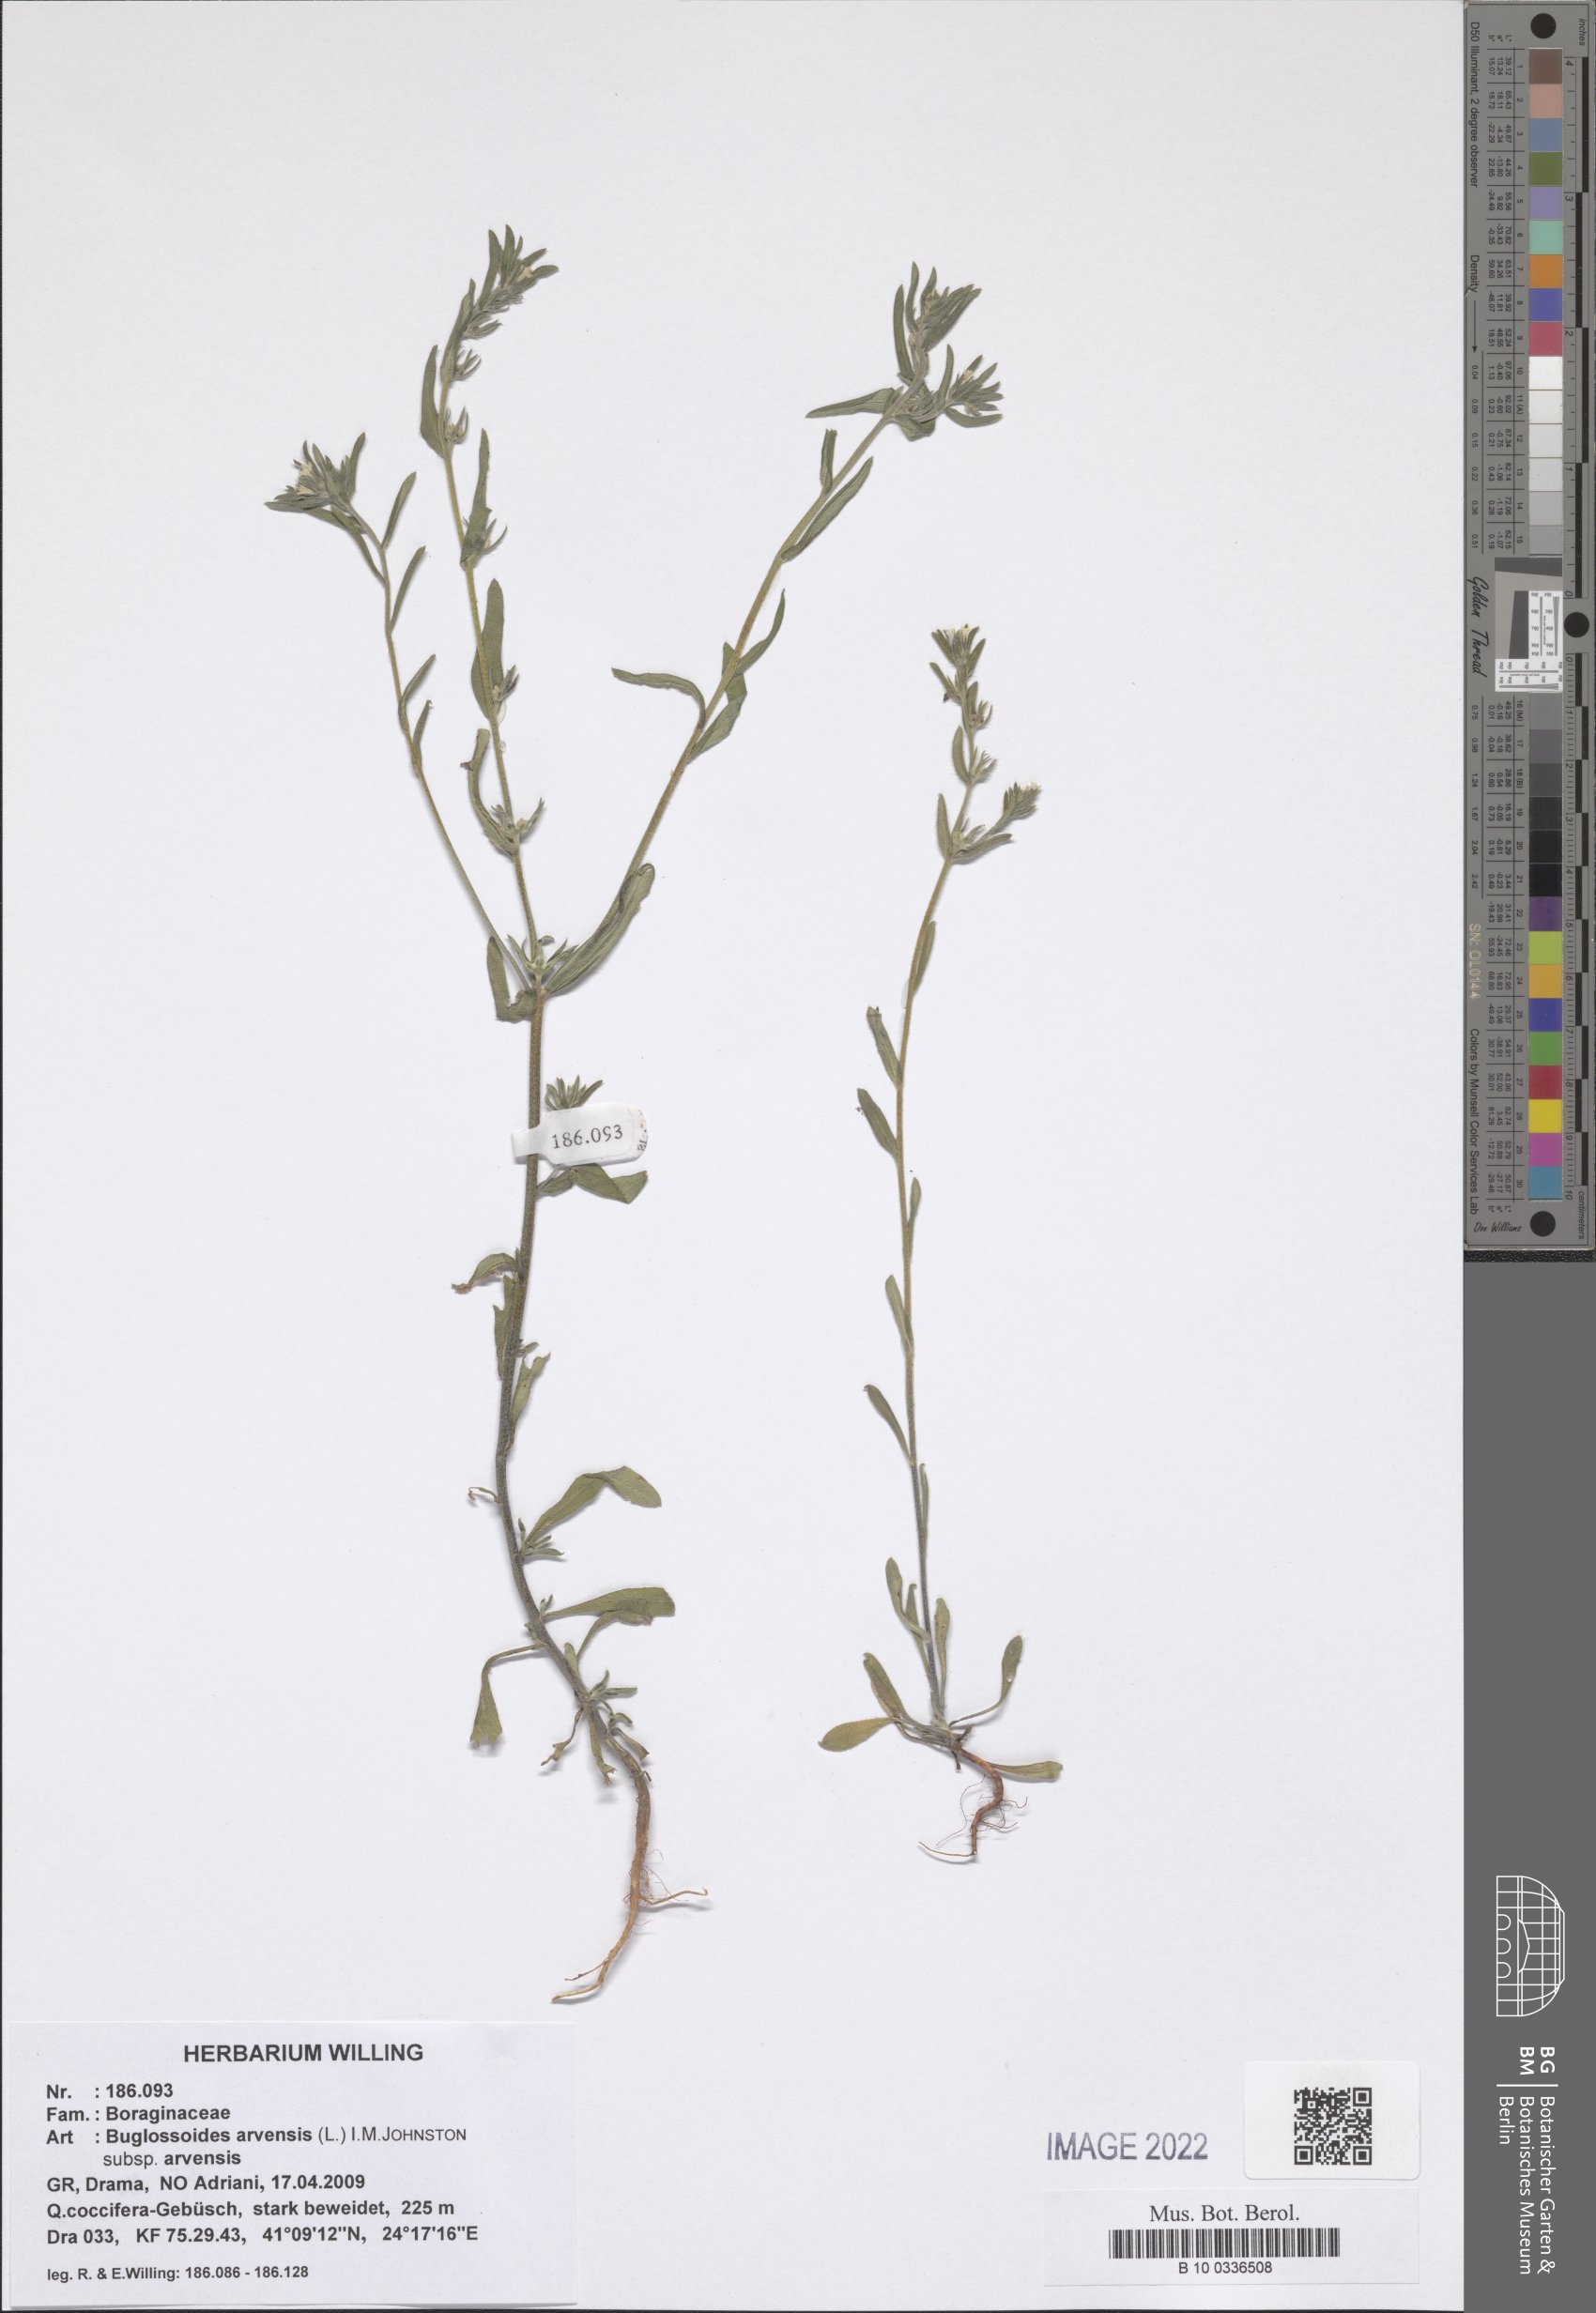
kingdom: Plantae
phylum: Tracheophyta
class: Magnoliopsida
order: Boraginales
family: Boraginaceae
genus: Buglossoides
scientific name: Buglossoides arvensis
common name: Corn gromwell
